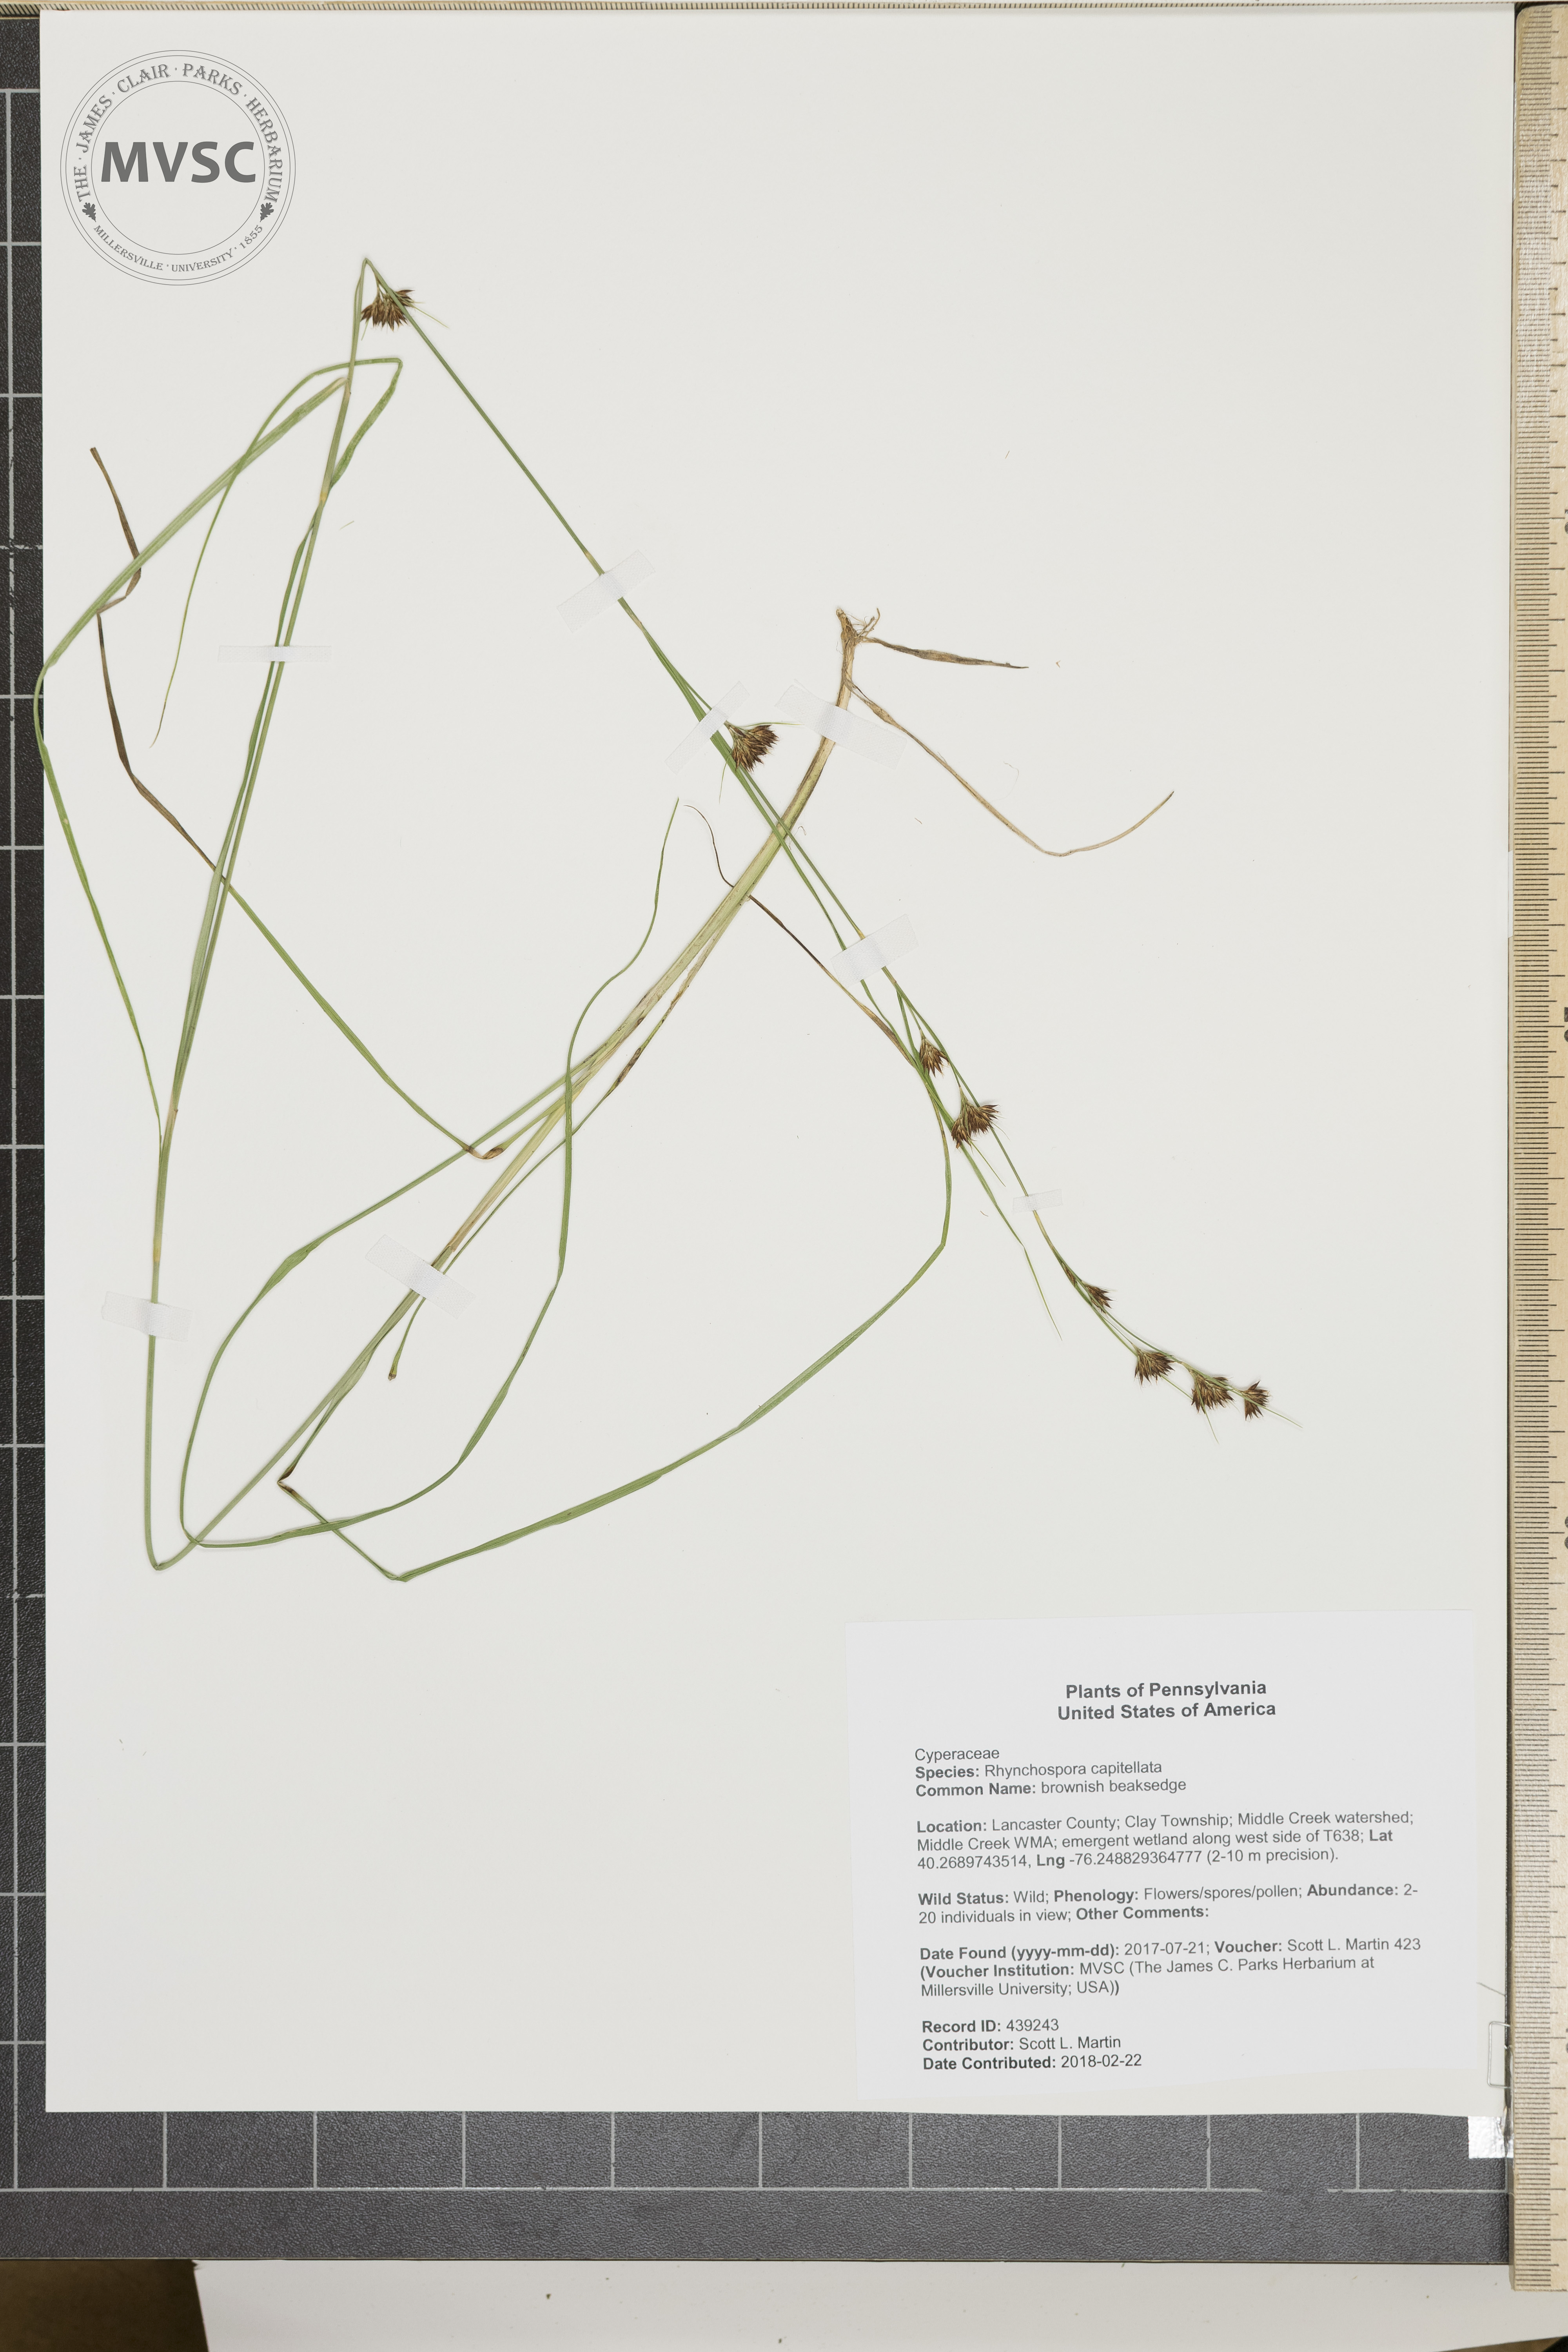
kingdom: Plantae
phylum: Tracheophyta
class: Liliopsida
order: Poales
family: Cyperaceae
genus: Rhynchospora
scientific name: Rhynchospora capitellata
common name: brownish beaksedge
